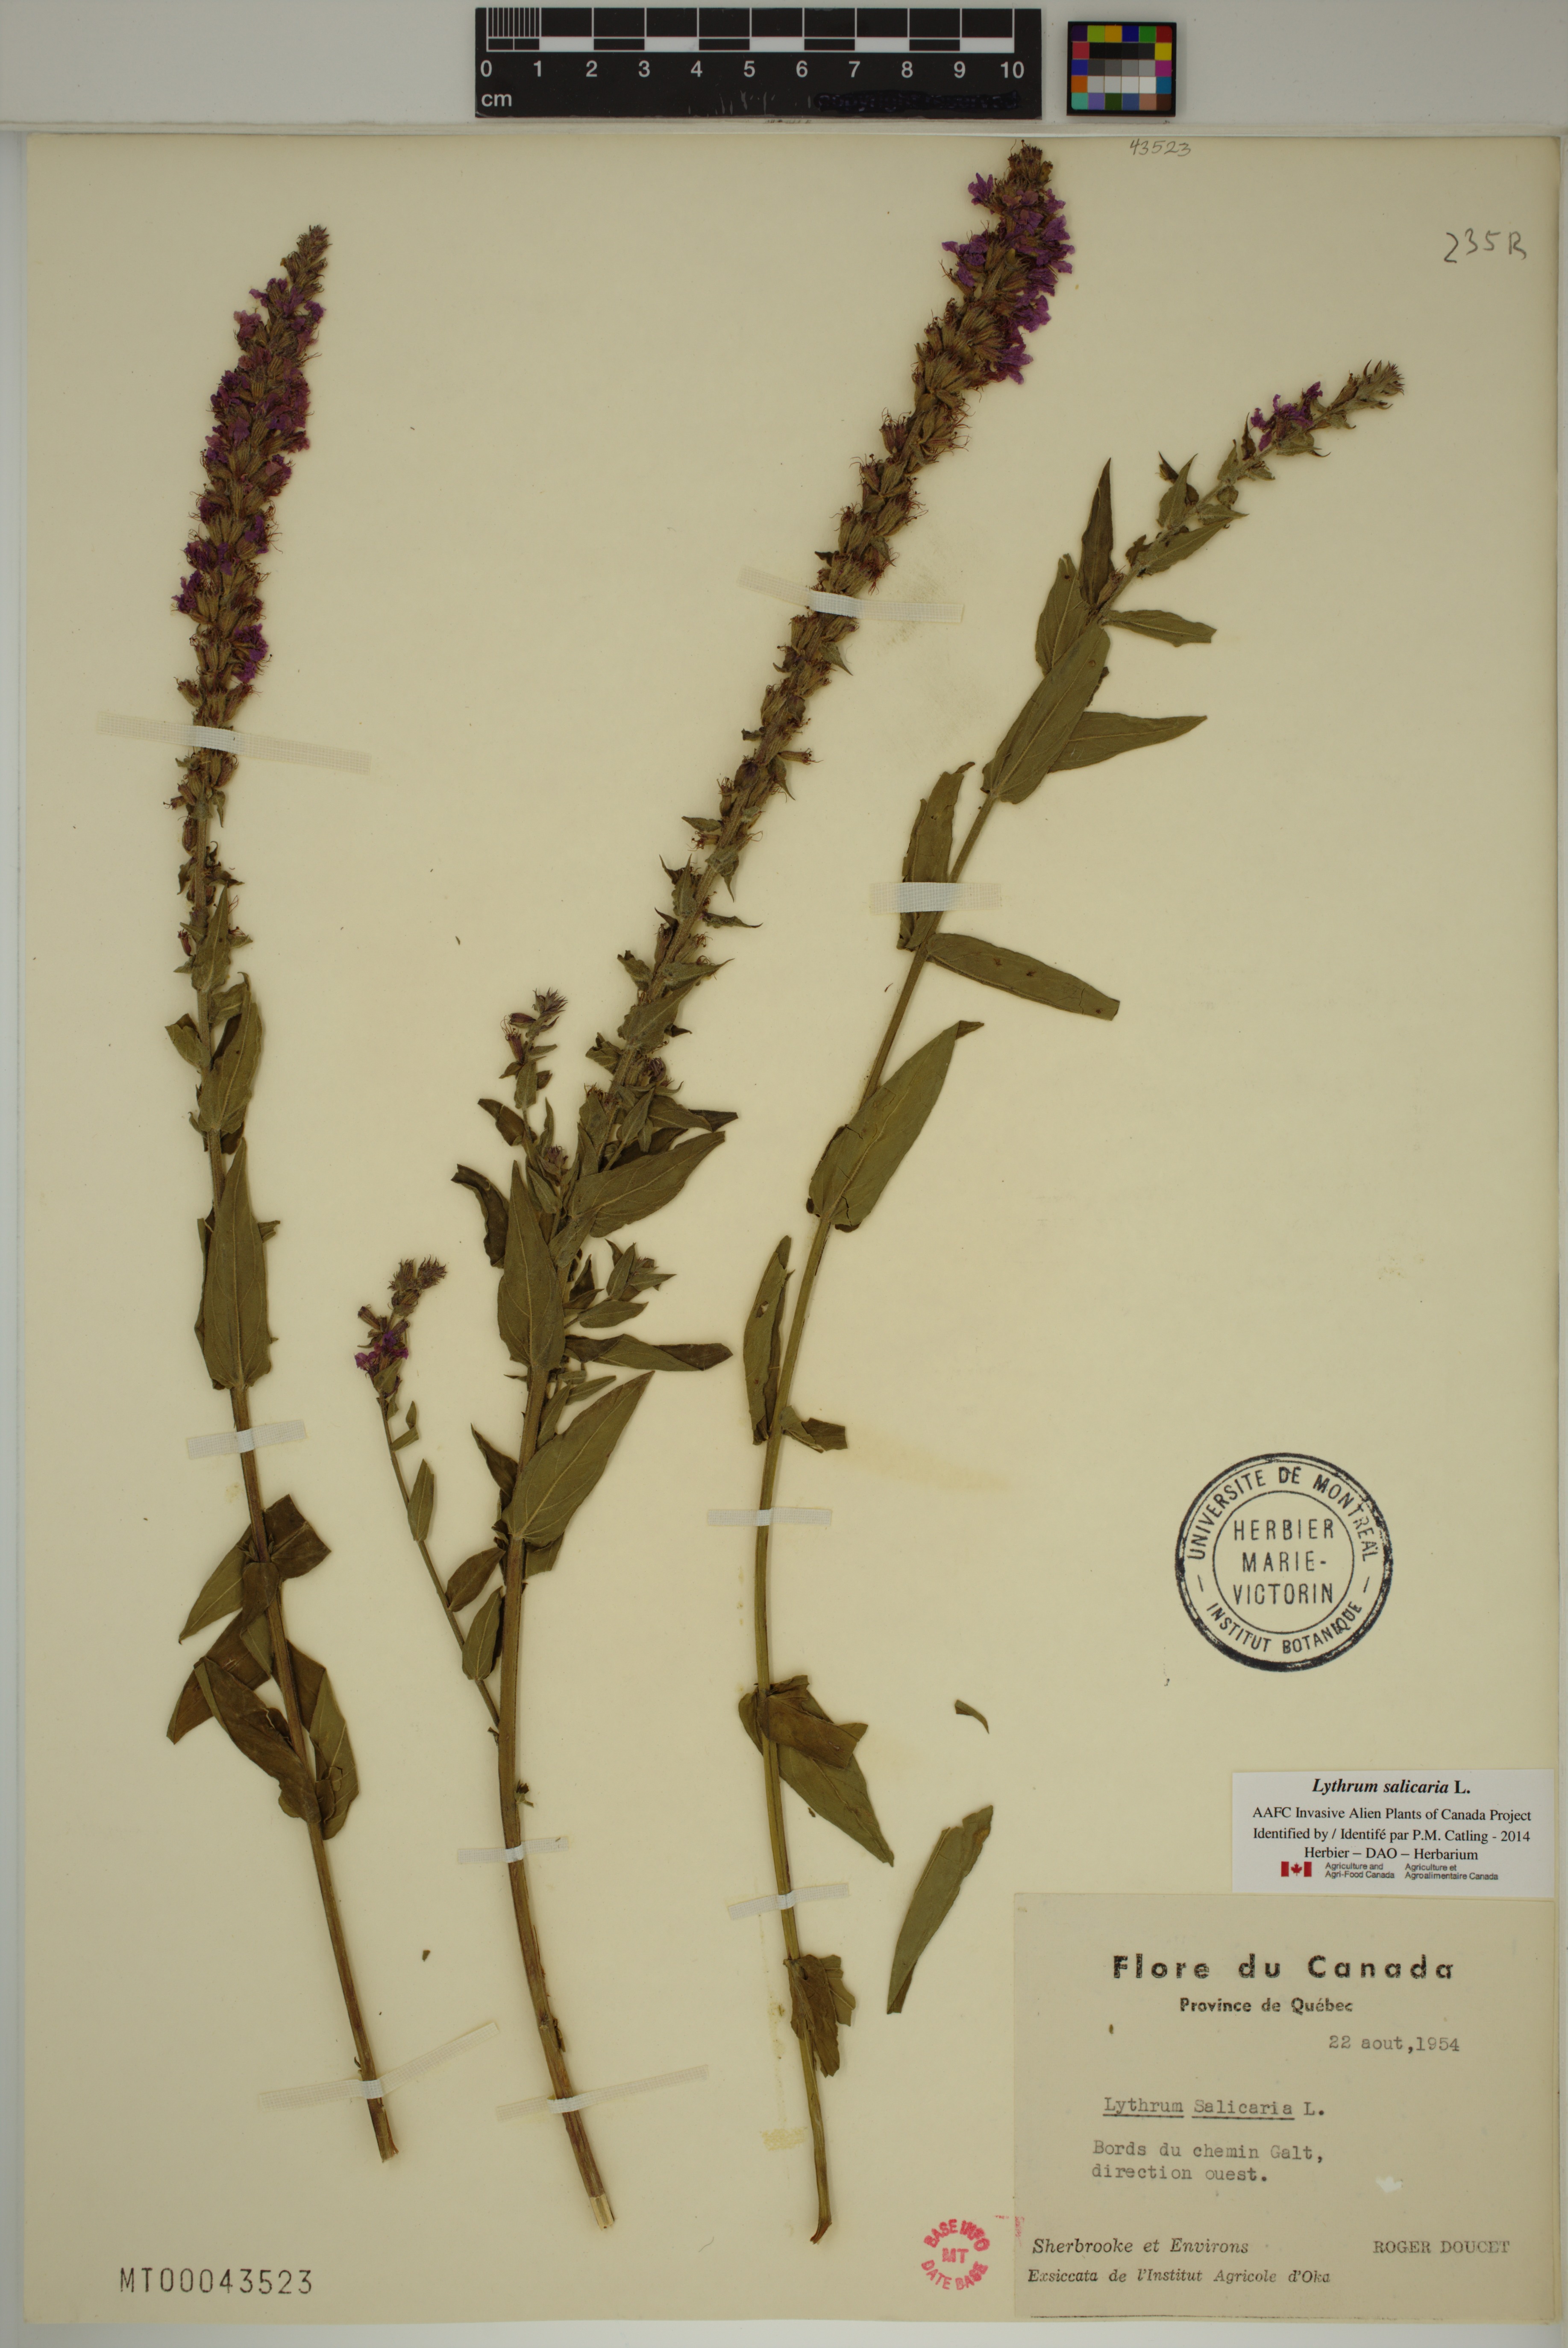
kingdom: Plantae
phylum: Tracheophyta
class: Magnoliopsida
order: Myrtales
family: Lythraceae
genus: Lythrum
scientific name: Lythrum salicaria
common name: Purple loosestrife
